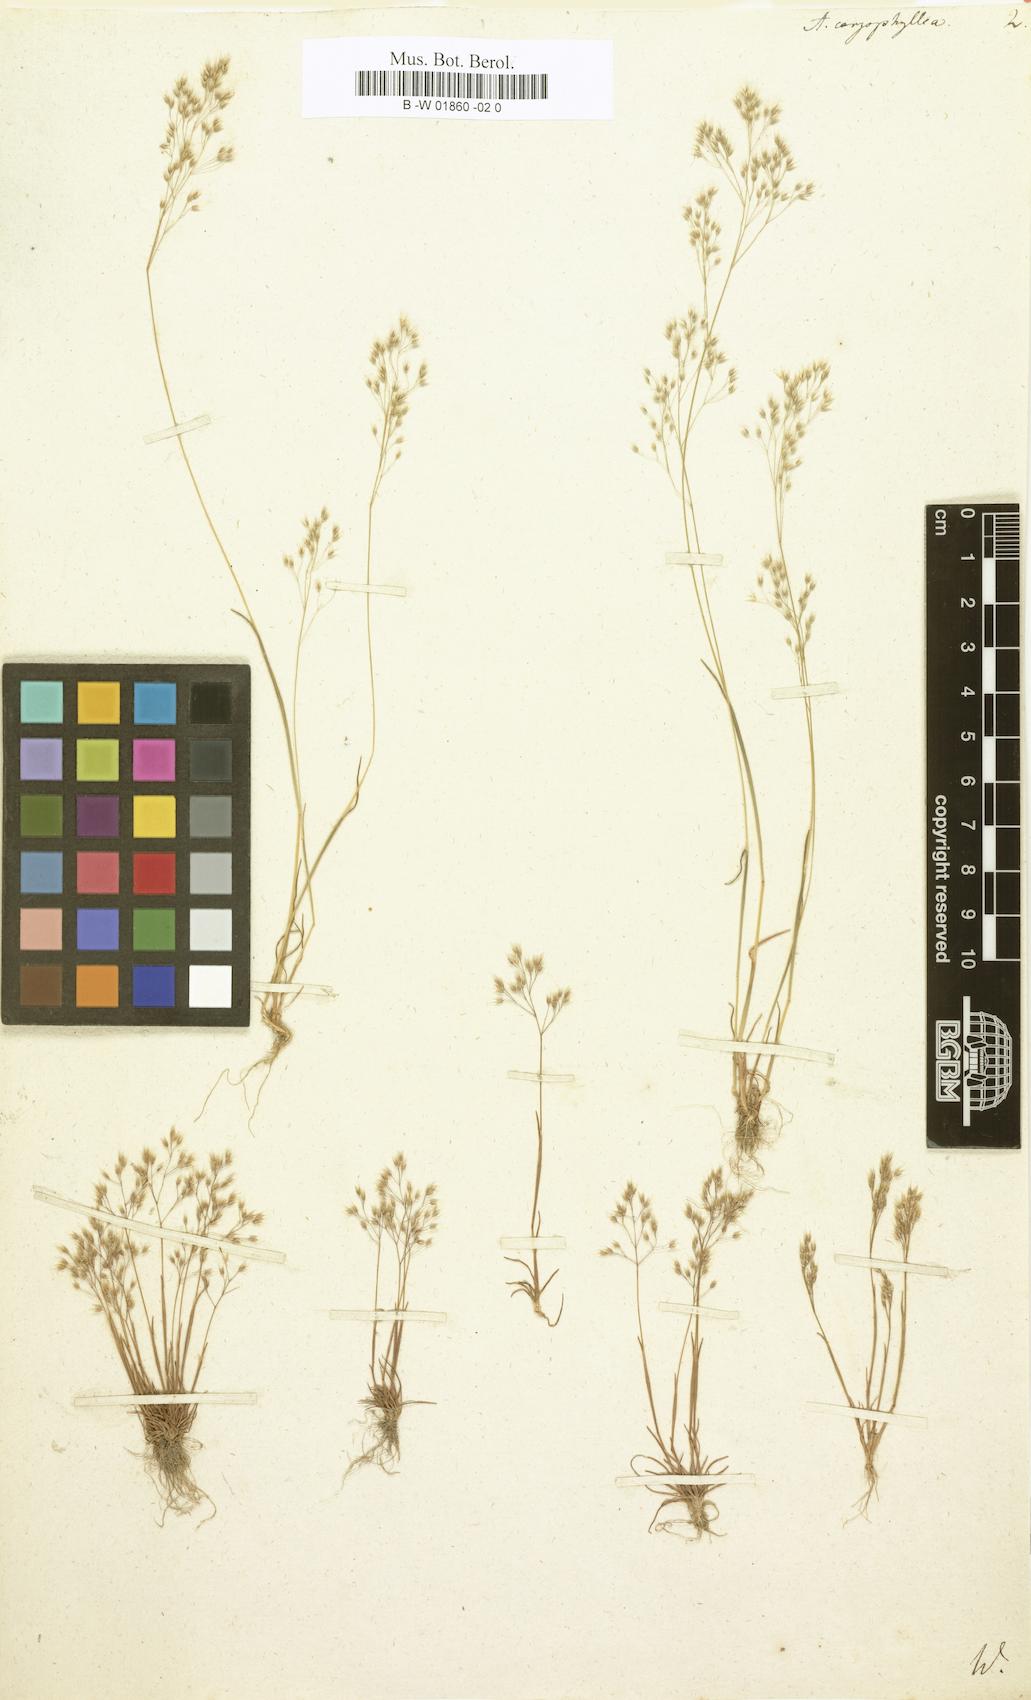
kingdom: Plantae
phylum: Tracheophyta
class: Liliopsida
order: Poales
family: Poaceae
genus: Aira
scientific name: Aira caryophyllea
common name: Silver hairgrass
